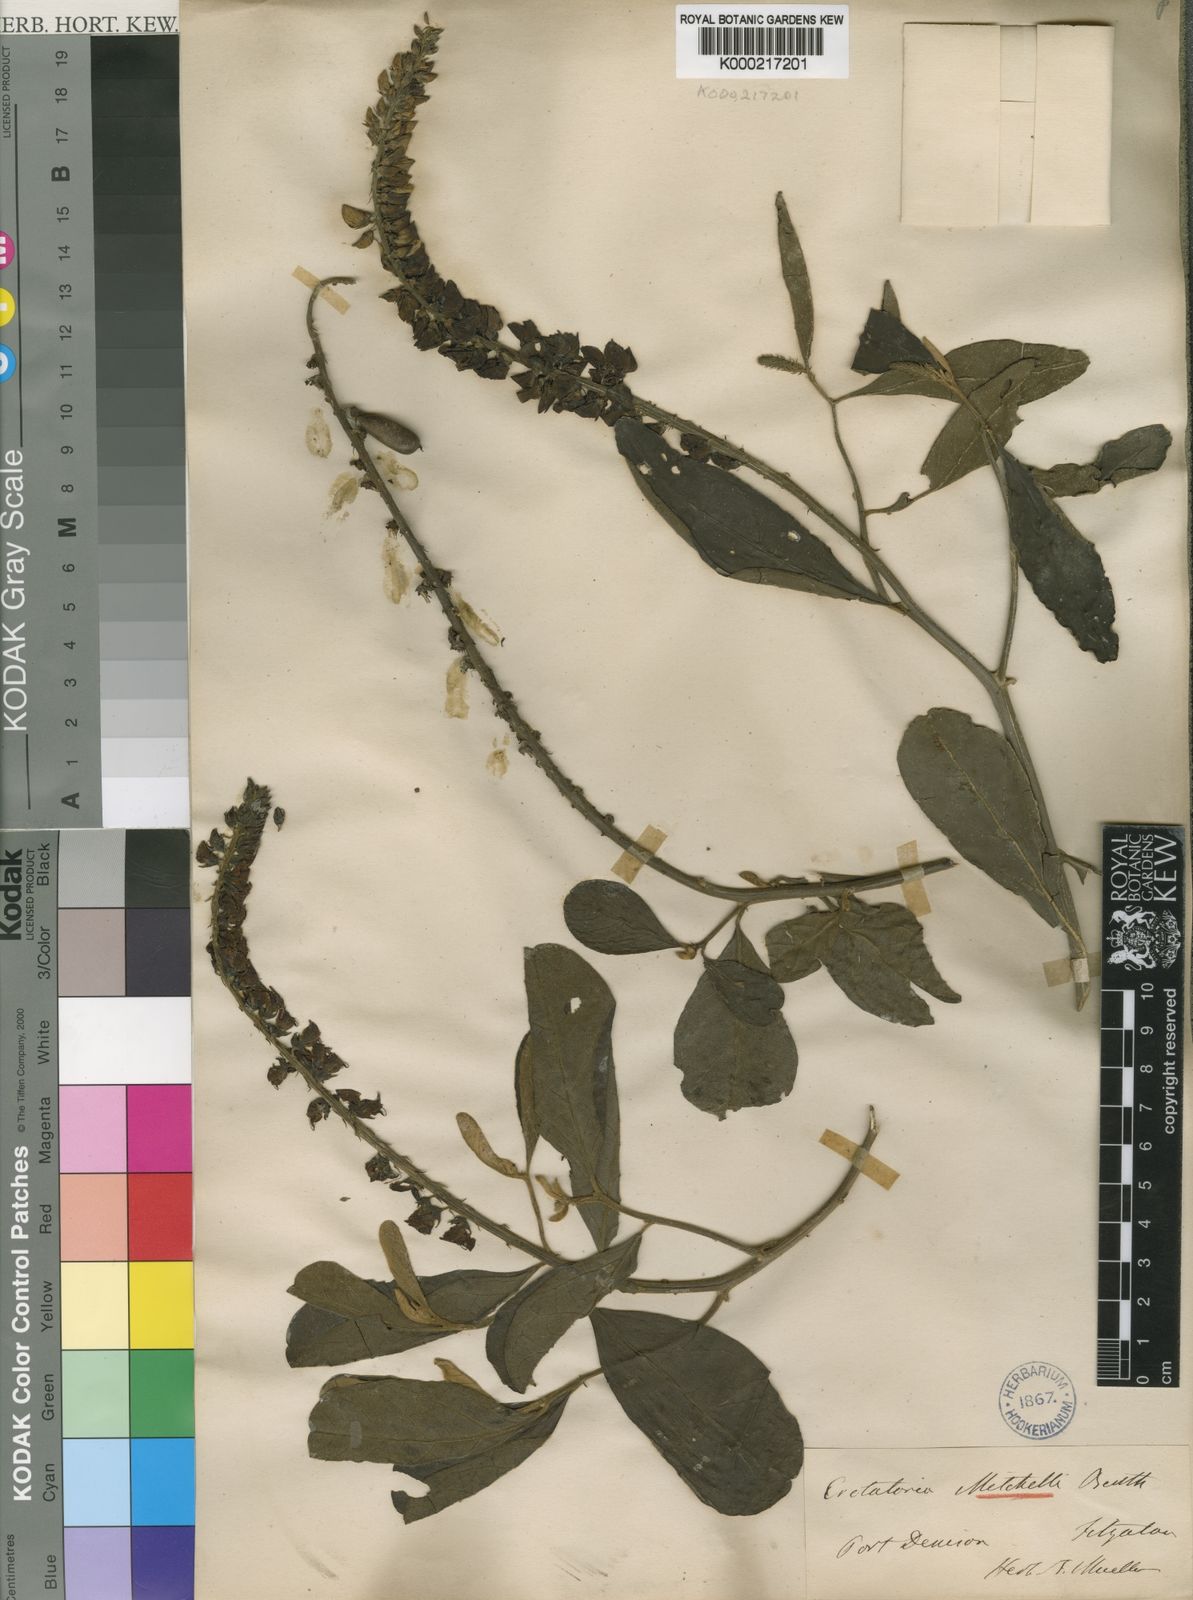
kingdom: Plantae
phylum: Tracheophyta
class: Magnoliopsida
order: Fabales
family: Fabaceae
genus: Crotalaria
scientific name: Crotalaria mitchellii
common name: Yellow rattlepod
